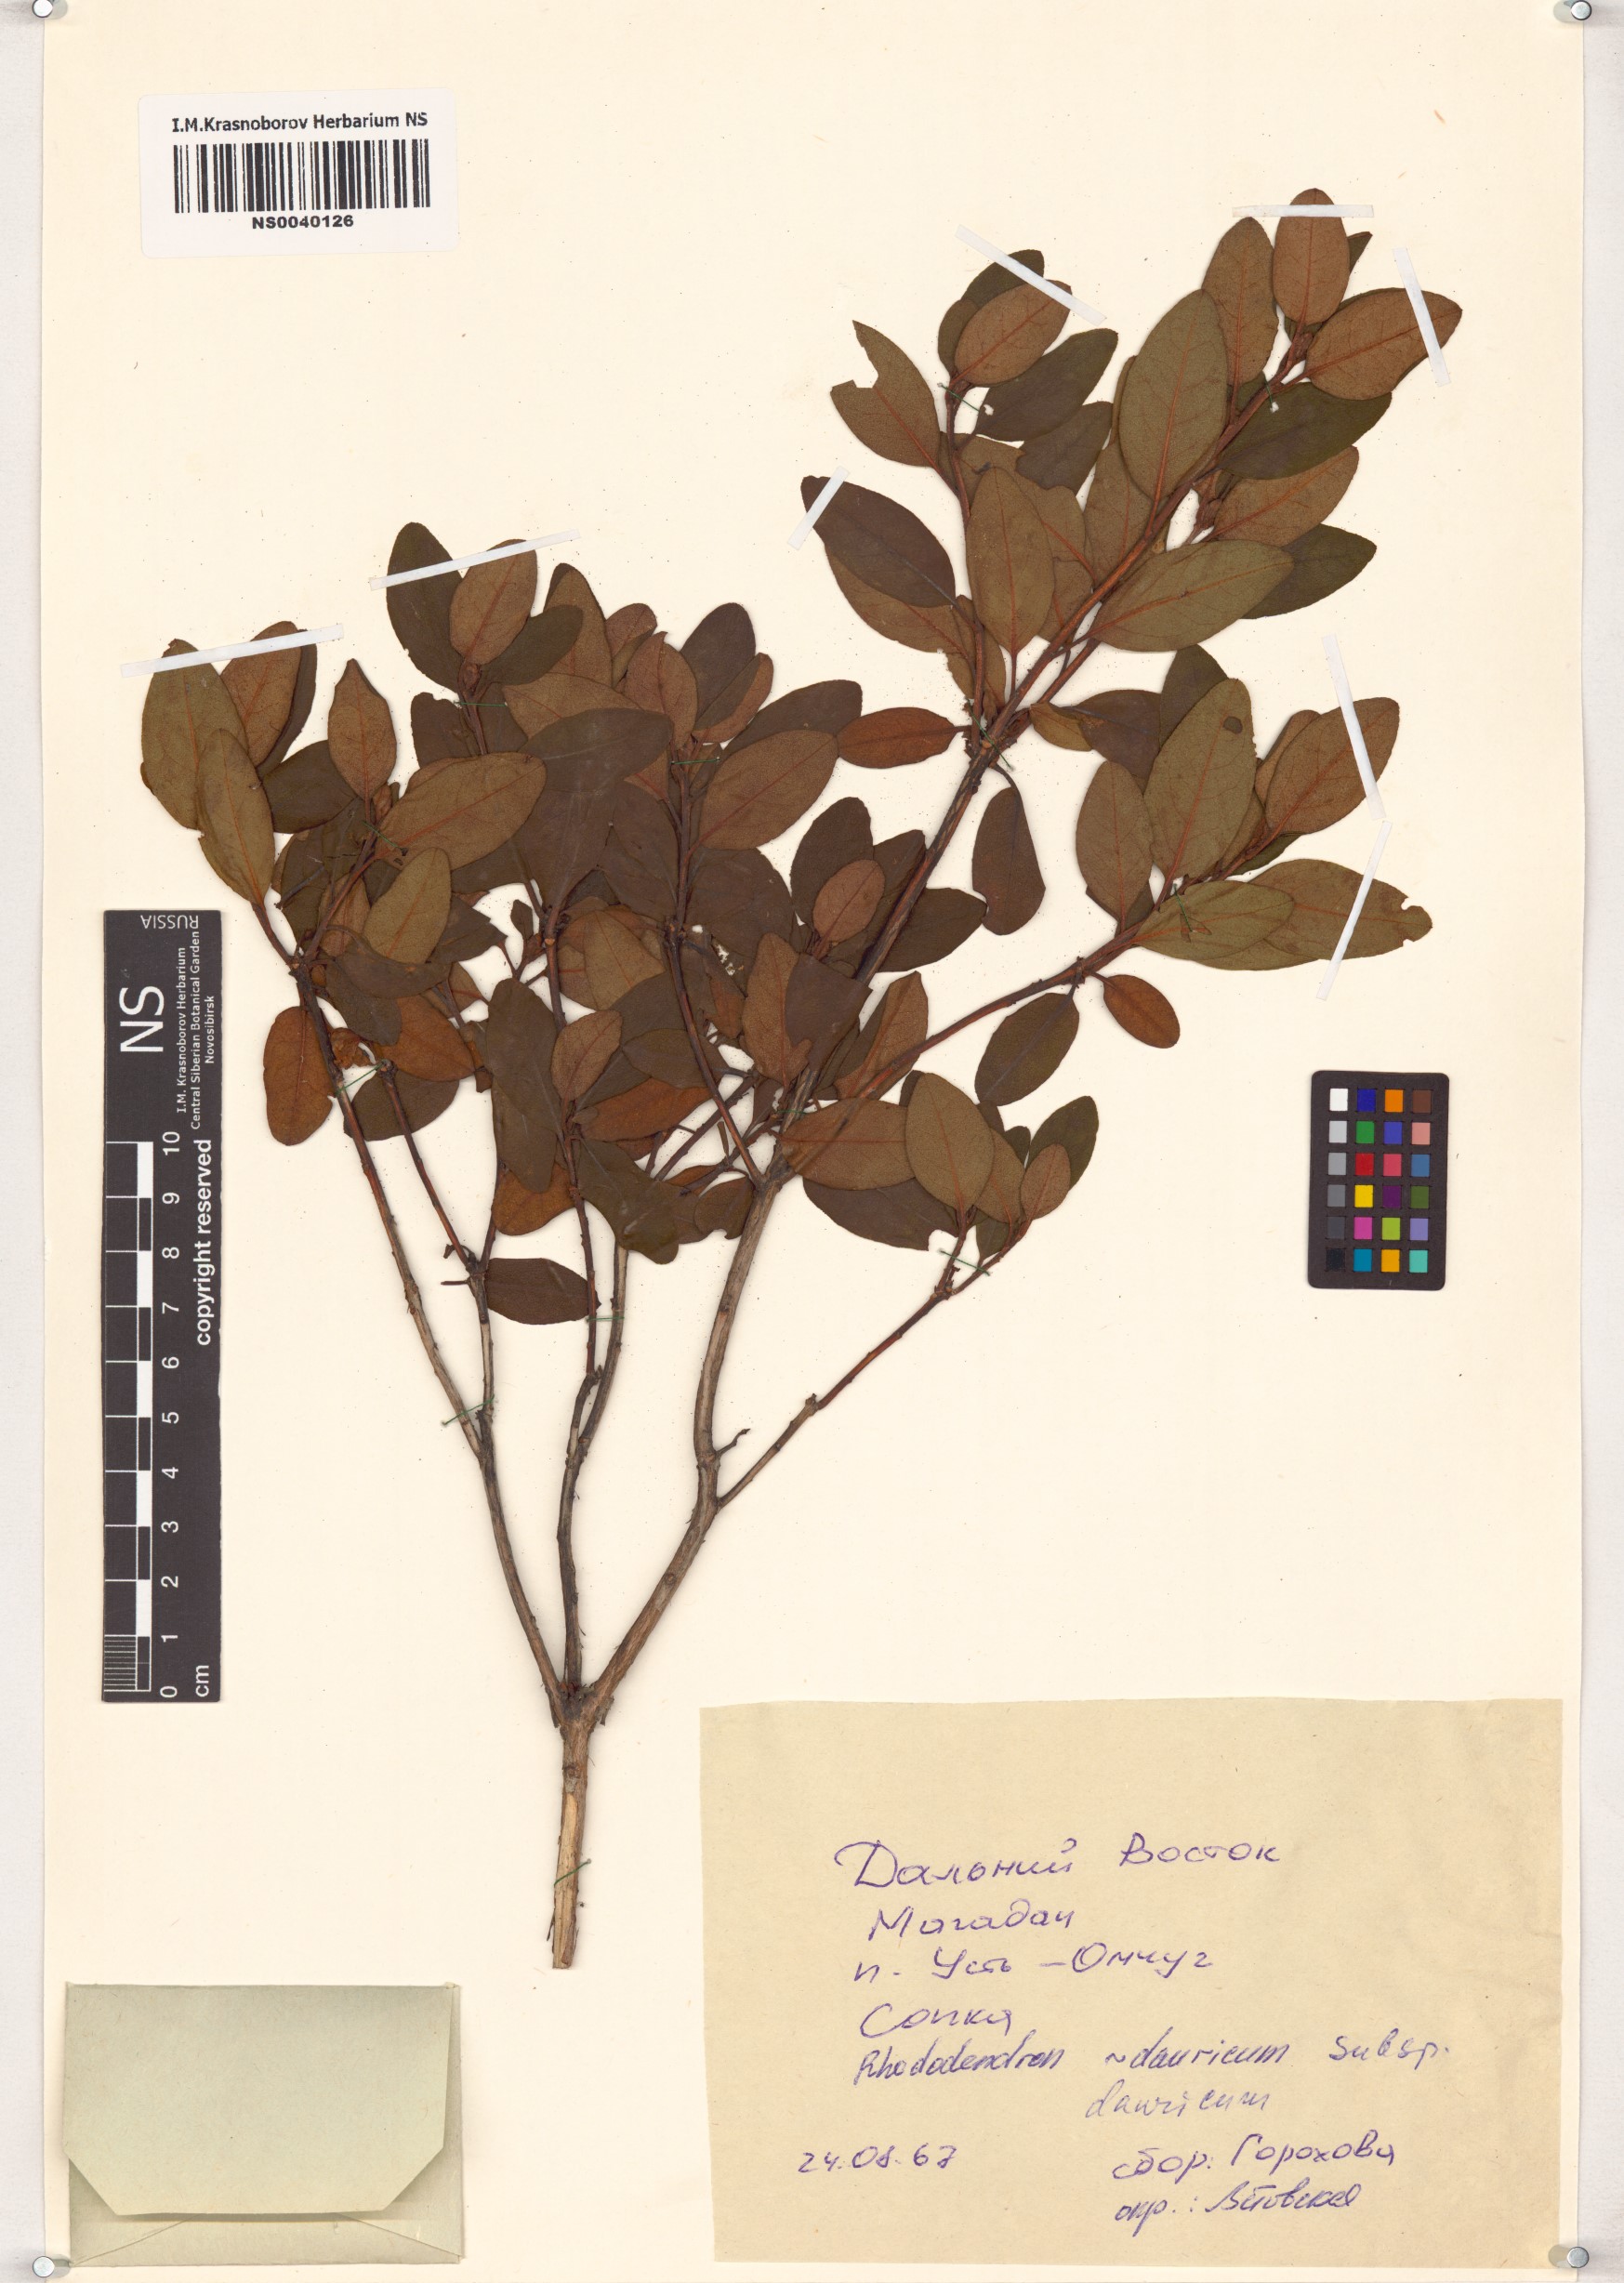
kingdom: Plantae
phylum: Tracheophyta
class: Magnoliopsida
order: Ericales
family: Ericaceae
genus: Rhododendron
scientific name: Rhododendron dauricum
